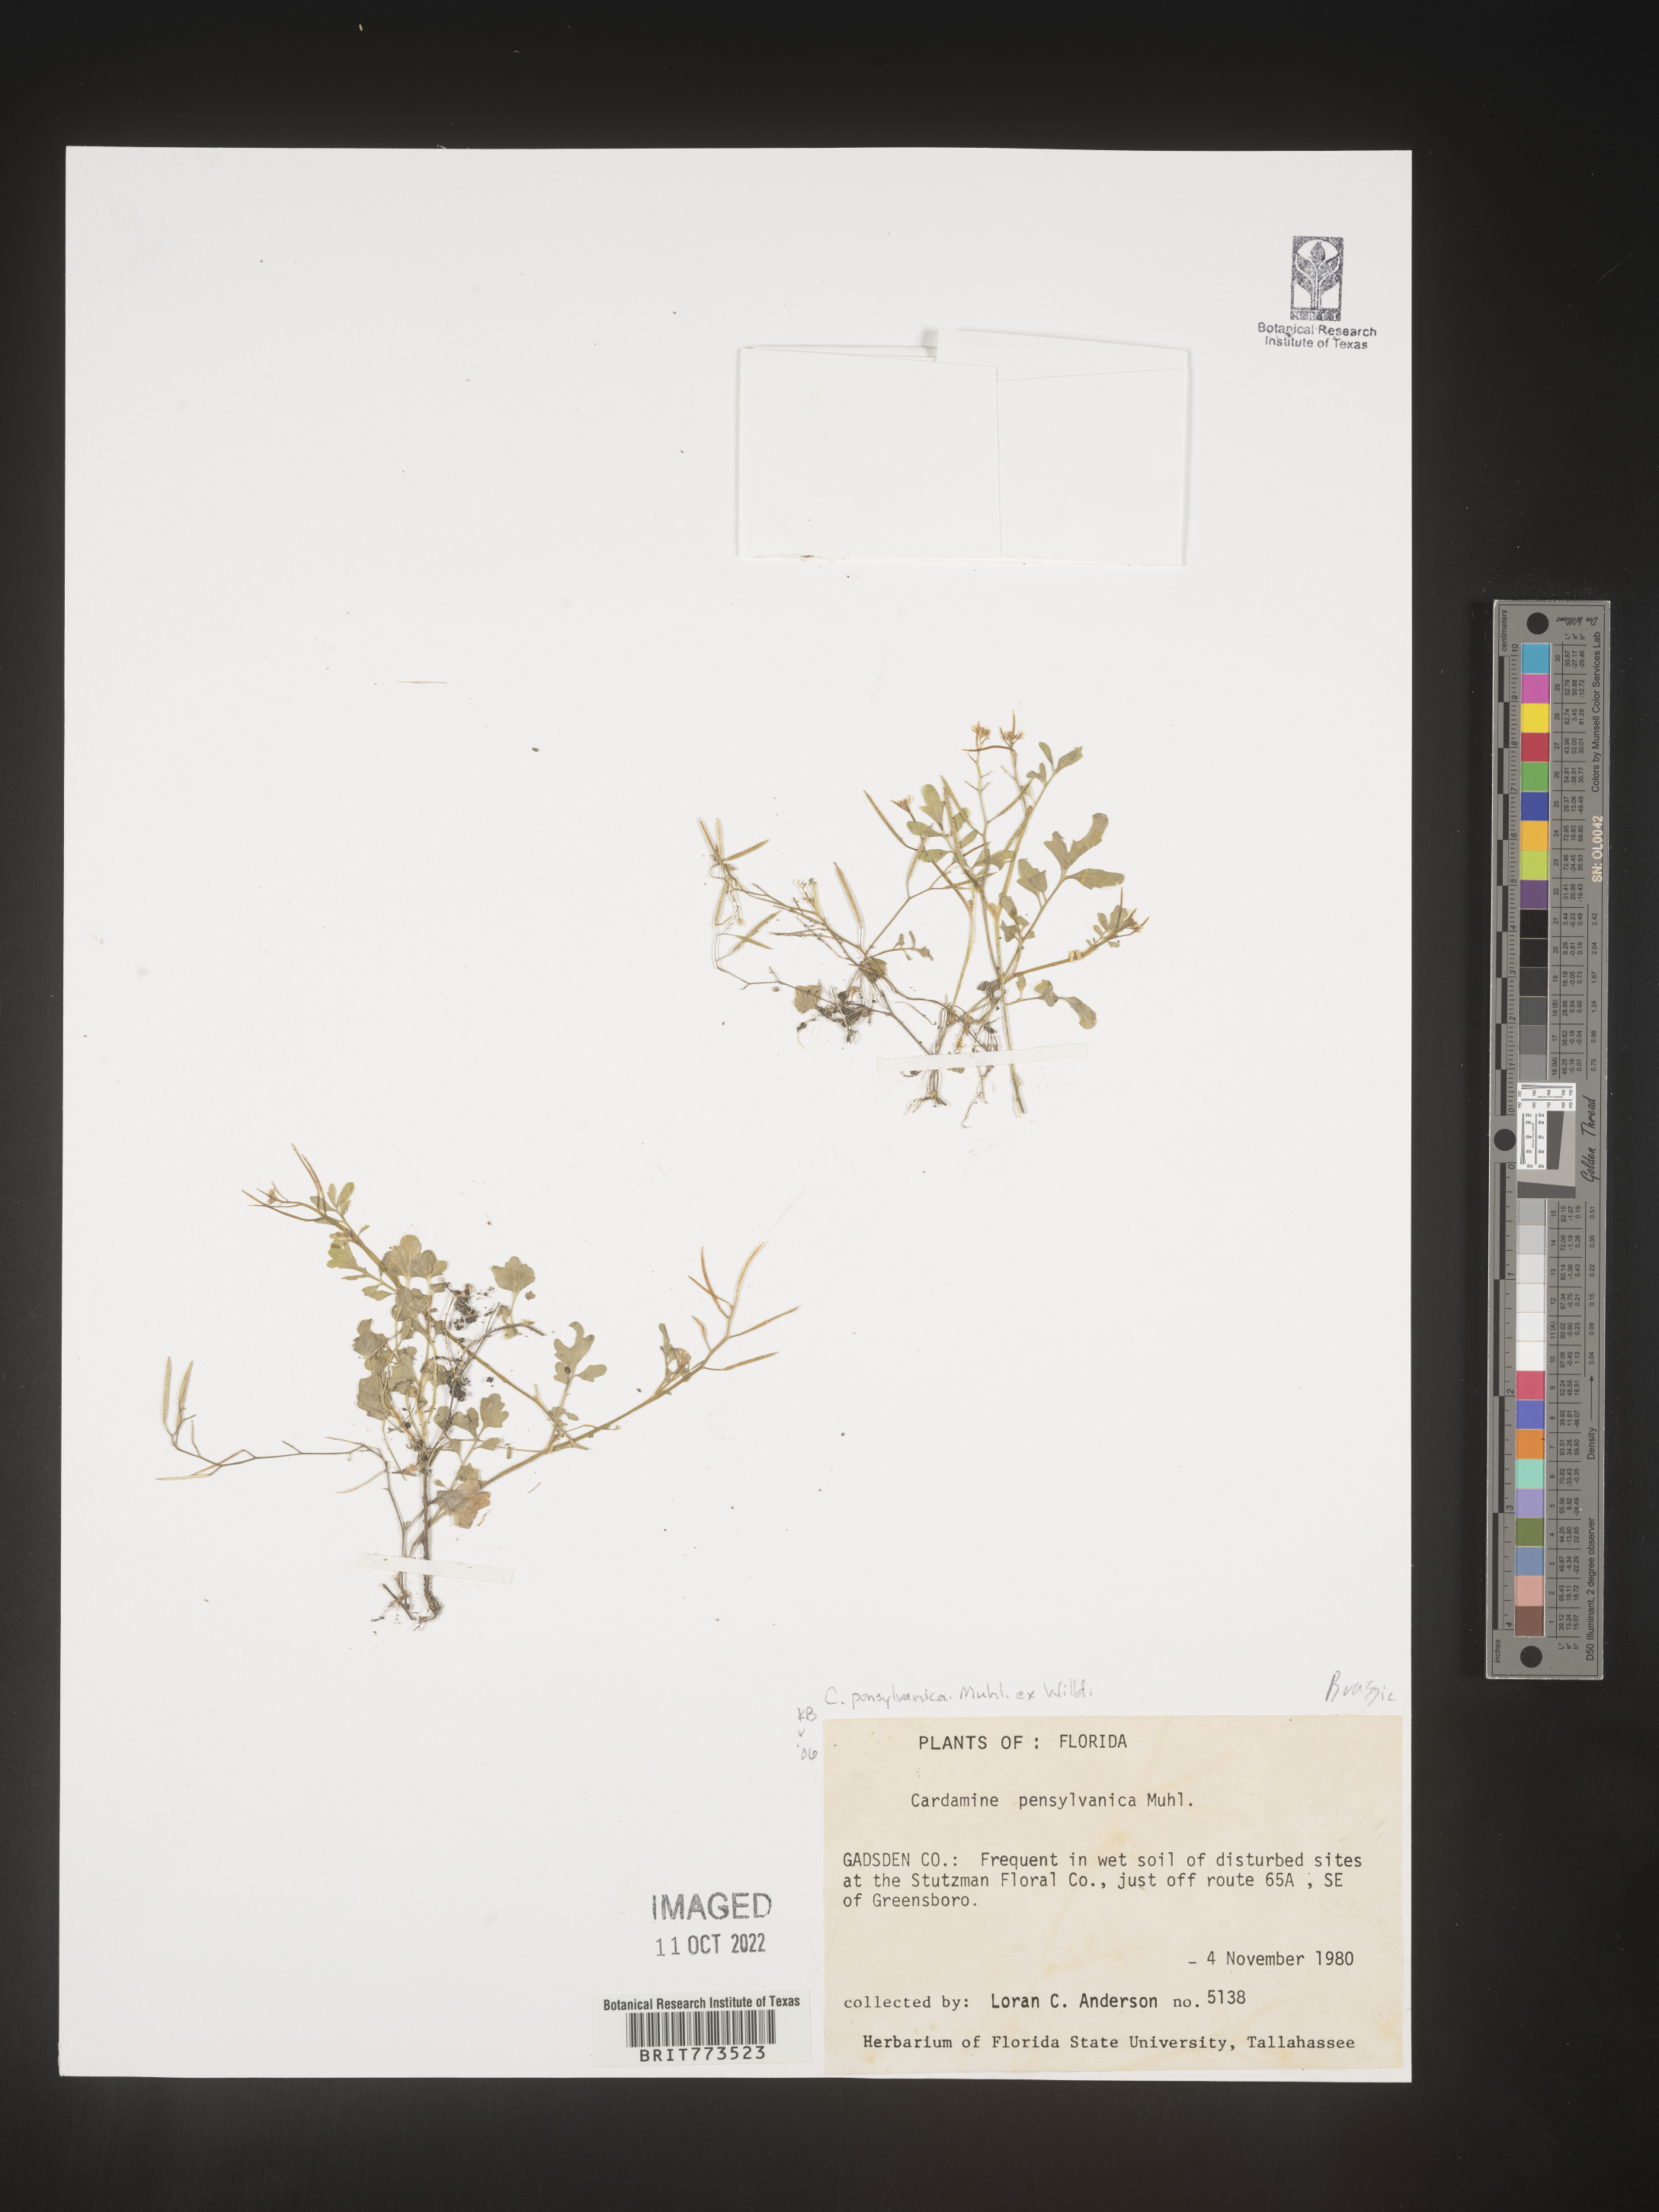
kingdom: Plantae
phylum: Tracheophyta
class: Magnoliopsida
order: Brassicales
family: Brassicaceae
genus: Cardamine
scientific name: Cardamine pensylvanica
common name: Pennsylvania bittercress
